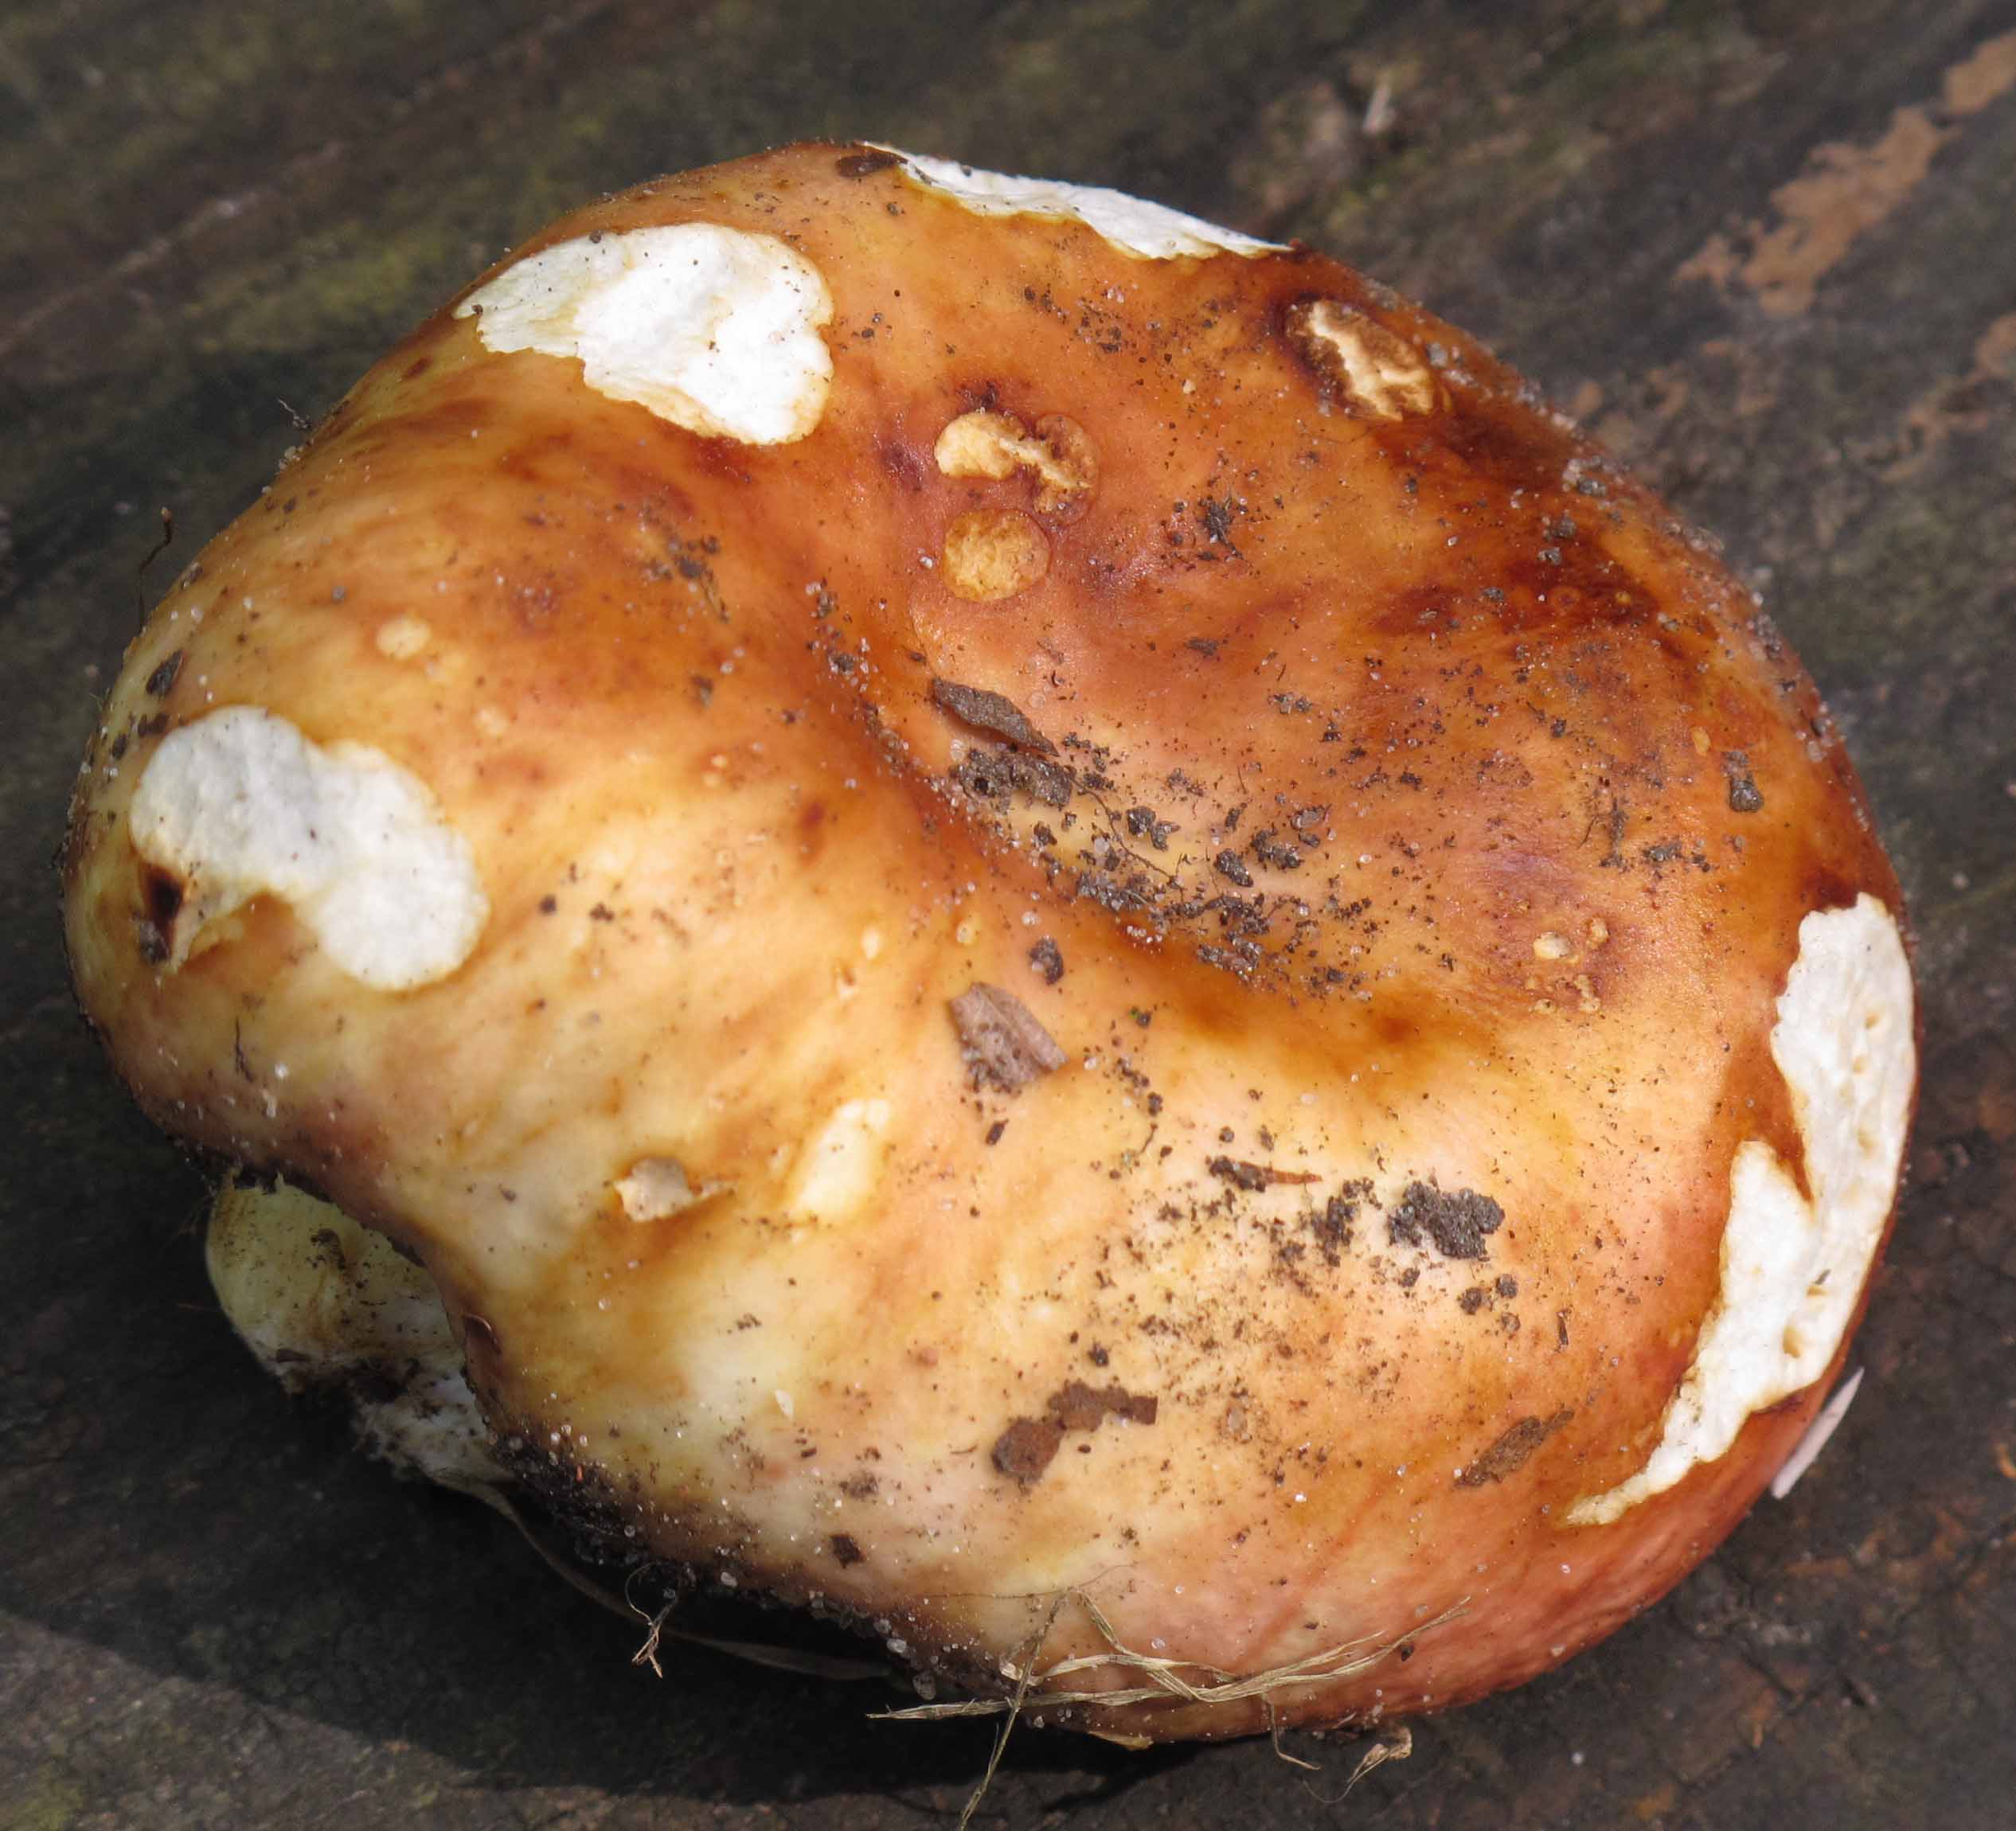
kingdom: Fungi
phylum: Basidiomycota
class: Agaricomycetes
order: Russulales
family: Russulaceae
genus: Russula
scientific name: Russula maculata
